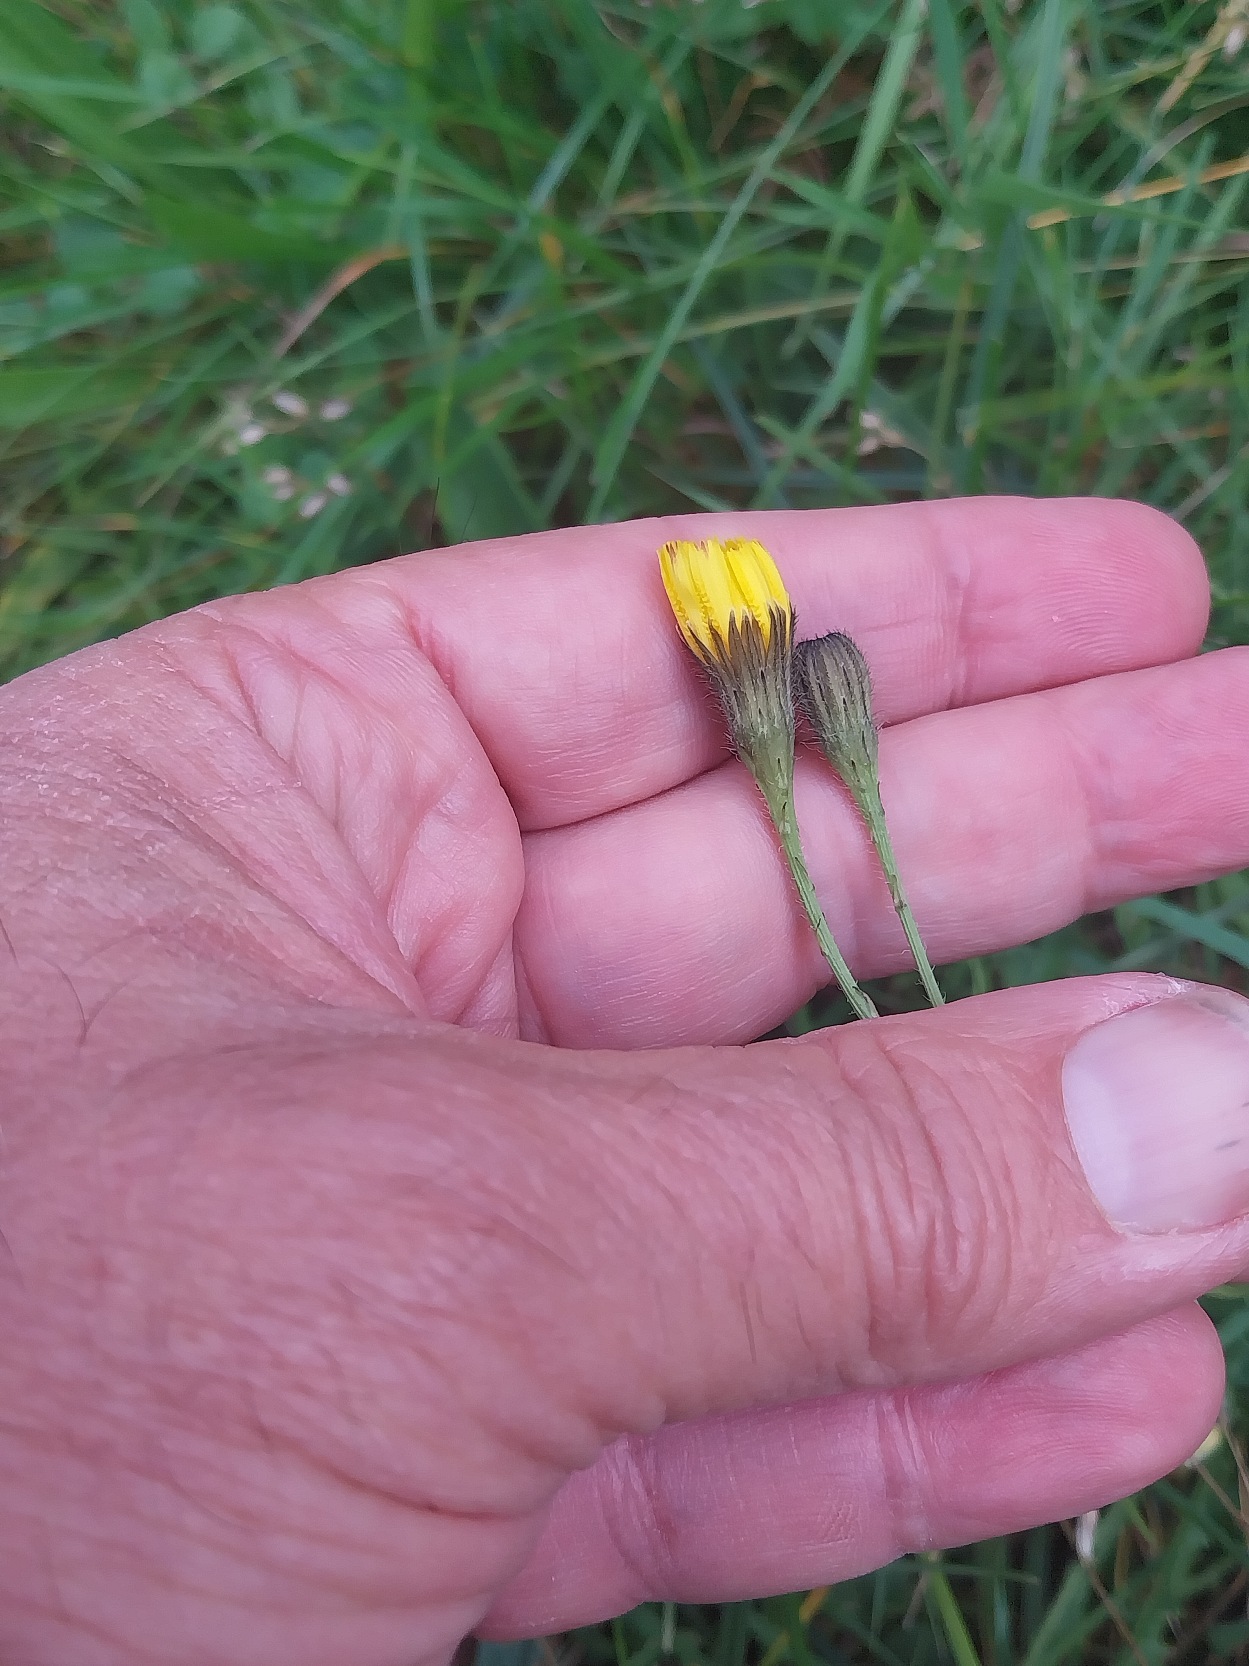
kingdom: Plantae
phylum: Tracheophyta
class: Magnoliopsida
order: Asterales
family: Asteraceae
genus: Scorzoneroides
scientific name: Scorzoneroides autumnalis
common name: Høst-borst
